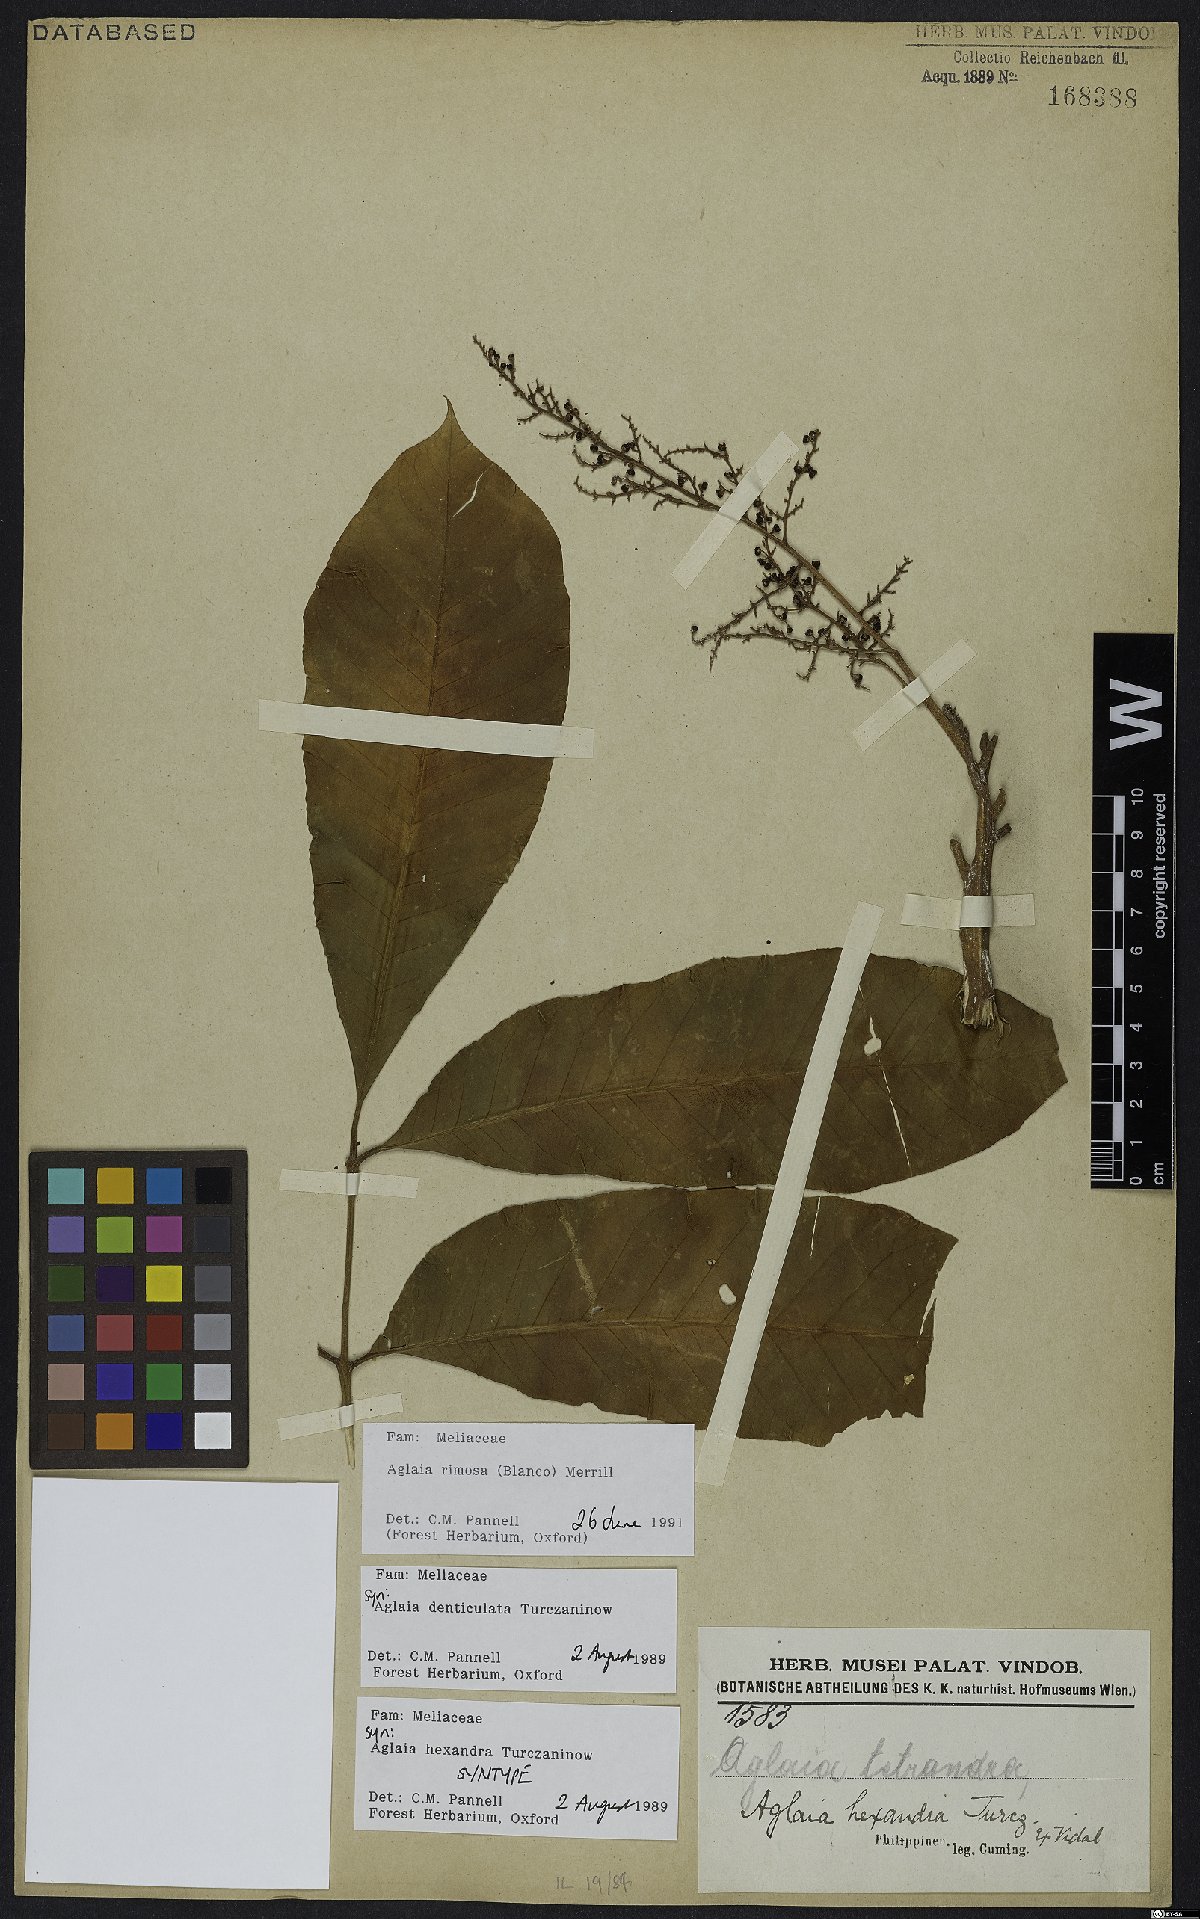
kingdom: Plantae
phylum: Tracheophyta
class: Magnoliopsida
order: Sapindales
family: Meliaceae
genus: Aglaia
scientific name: Aglaia rimosa
